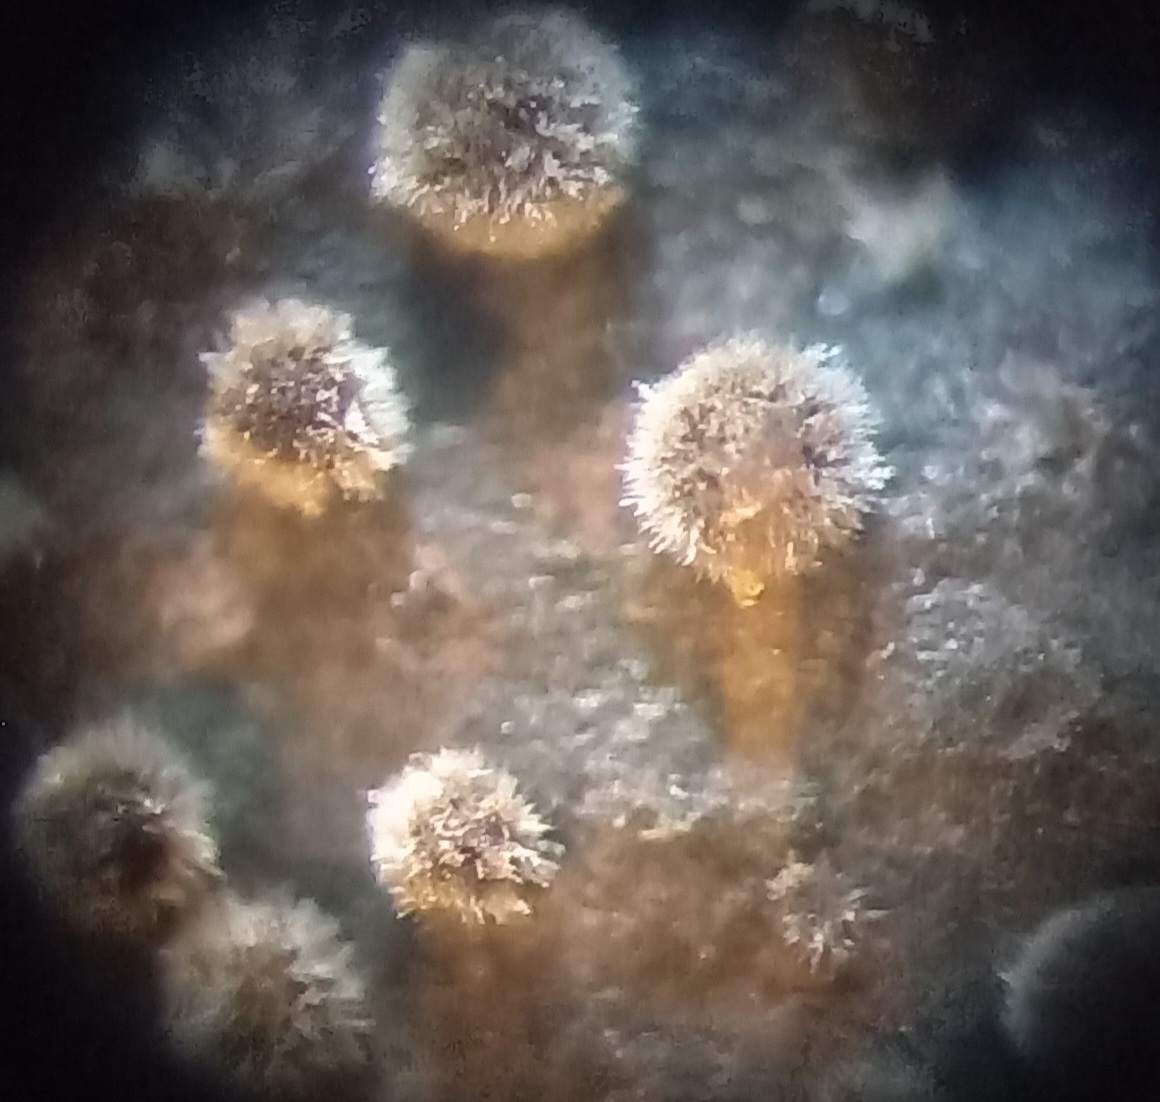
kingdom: Fungi
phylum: Ascomycota
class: Sordariomycetes
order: Xylariales
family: Hypoxylaceae
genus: Hypoxylon
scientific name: Hypoxylon rubiginosum
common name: rustfarvet kulbær
